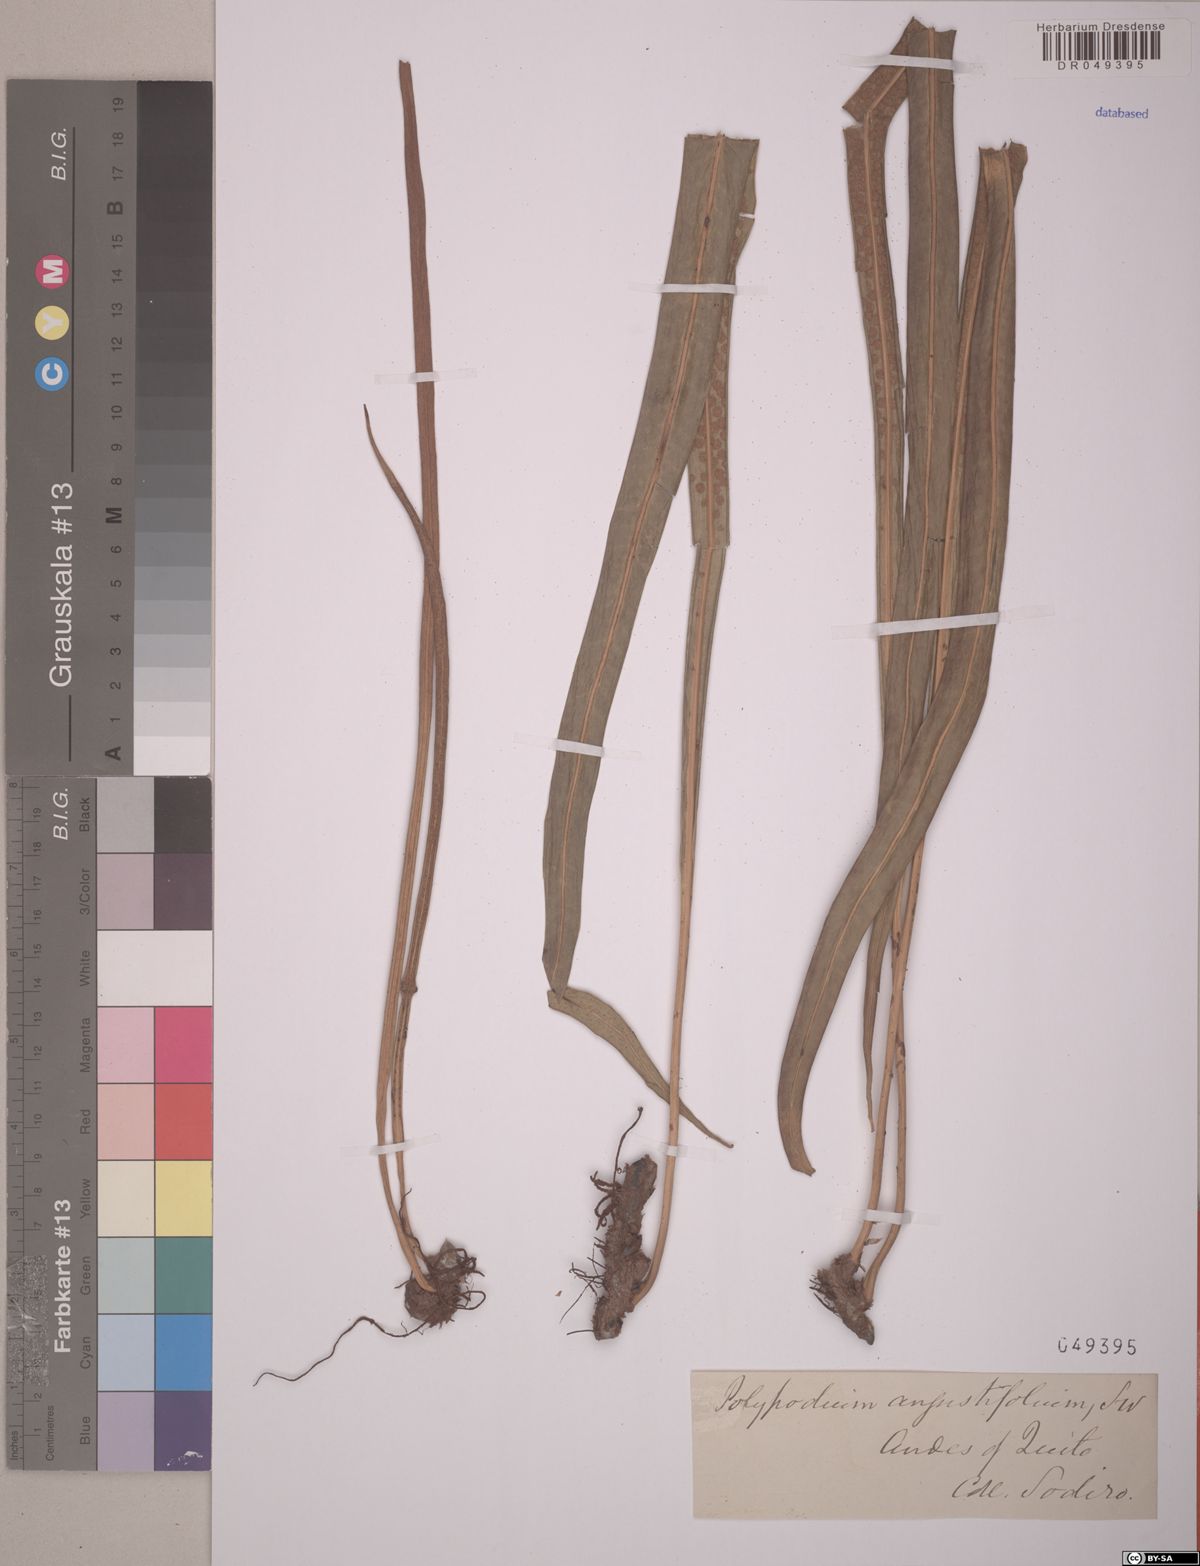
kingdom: Plantae
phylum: Tracheophyta
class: Polypodiopsida
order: Polypodiales
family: Polypodiaceae
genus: Campyloneurum
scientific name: Campyloneurum angustifolium
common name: Narrow-leaf strap fern
